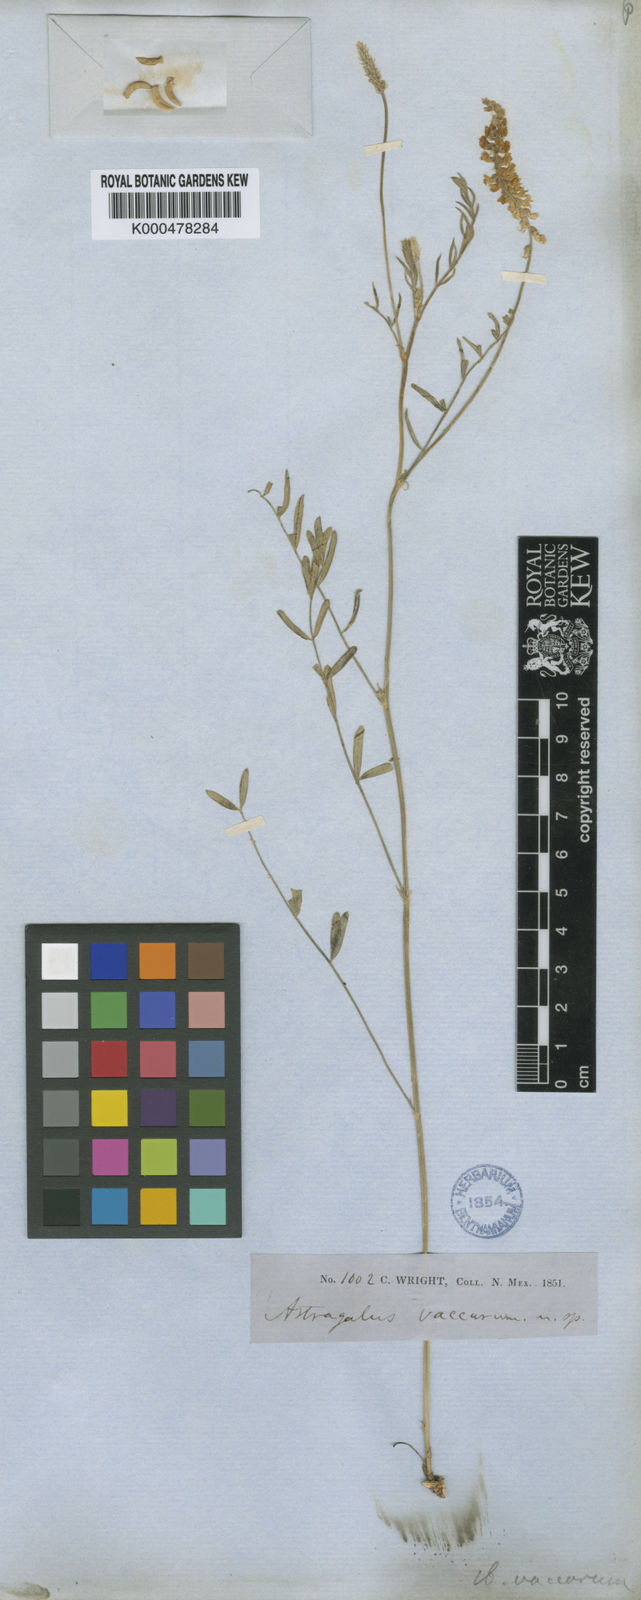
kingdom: Plantae
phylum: Tracheophyta
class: Magnoliopsida
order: Fabales
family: Fabaceae
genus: Astragalus
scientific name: Astragalus hartwegii
